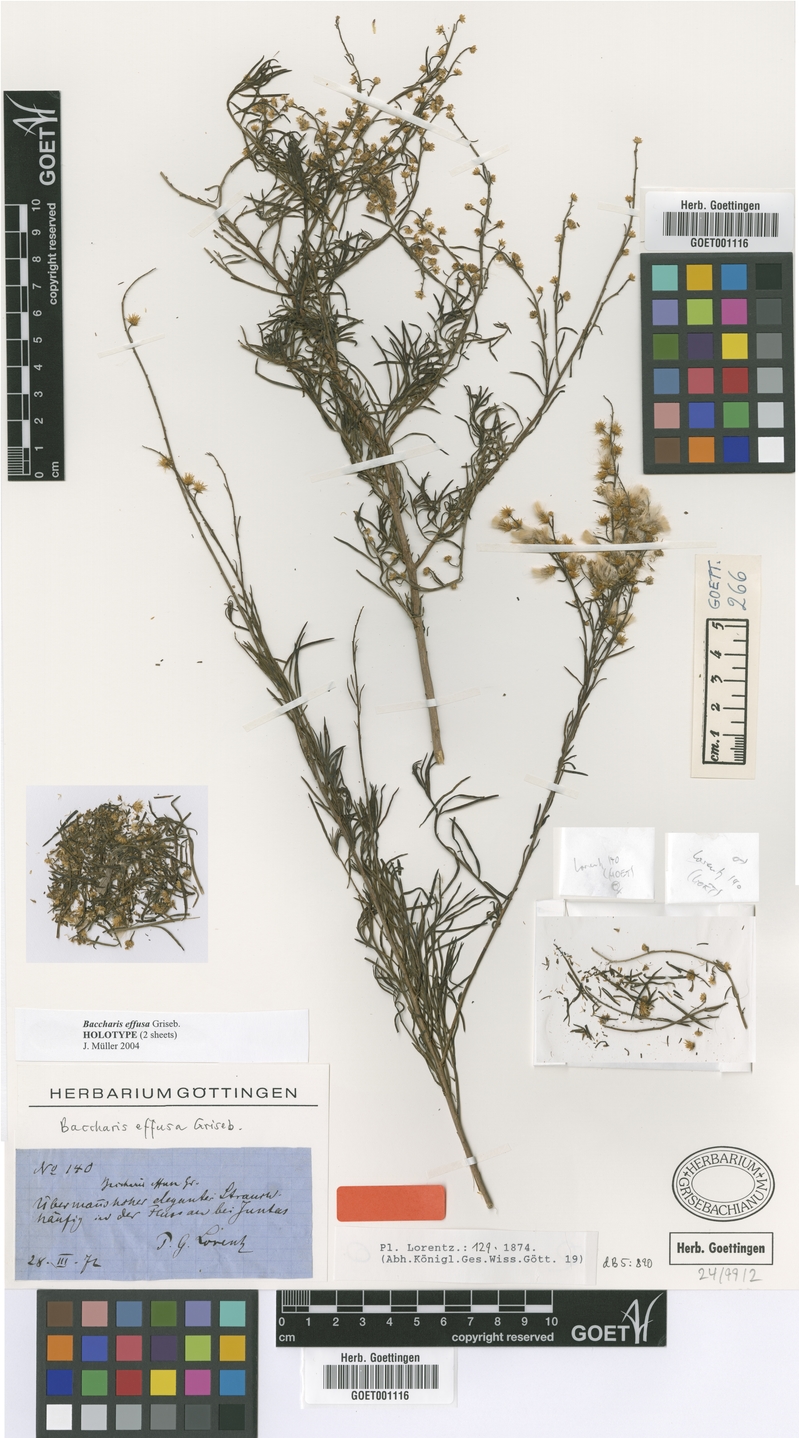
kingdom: Plantae
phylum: Tracheophyta
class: Magnoliopsida
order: Asterales
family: Asteraceae
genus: Baccharis
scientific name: Baccharis effusa
